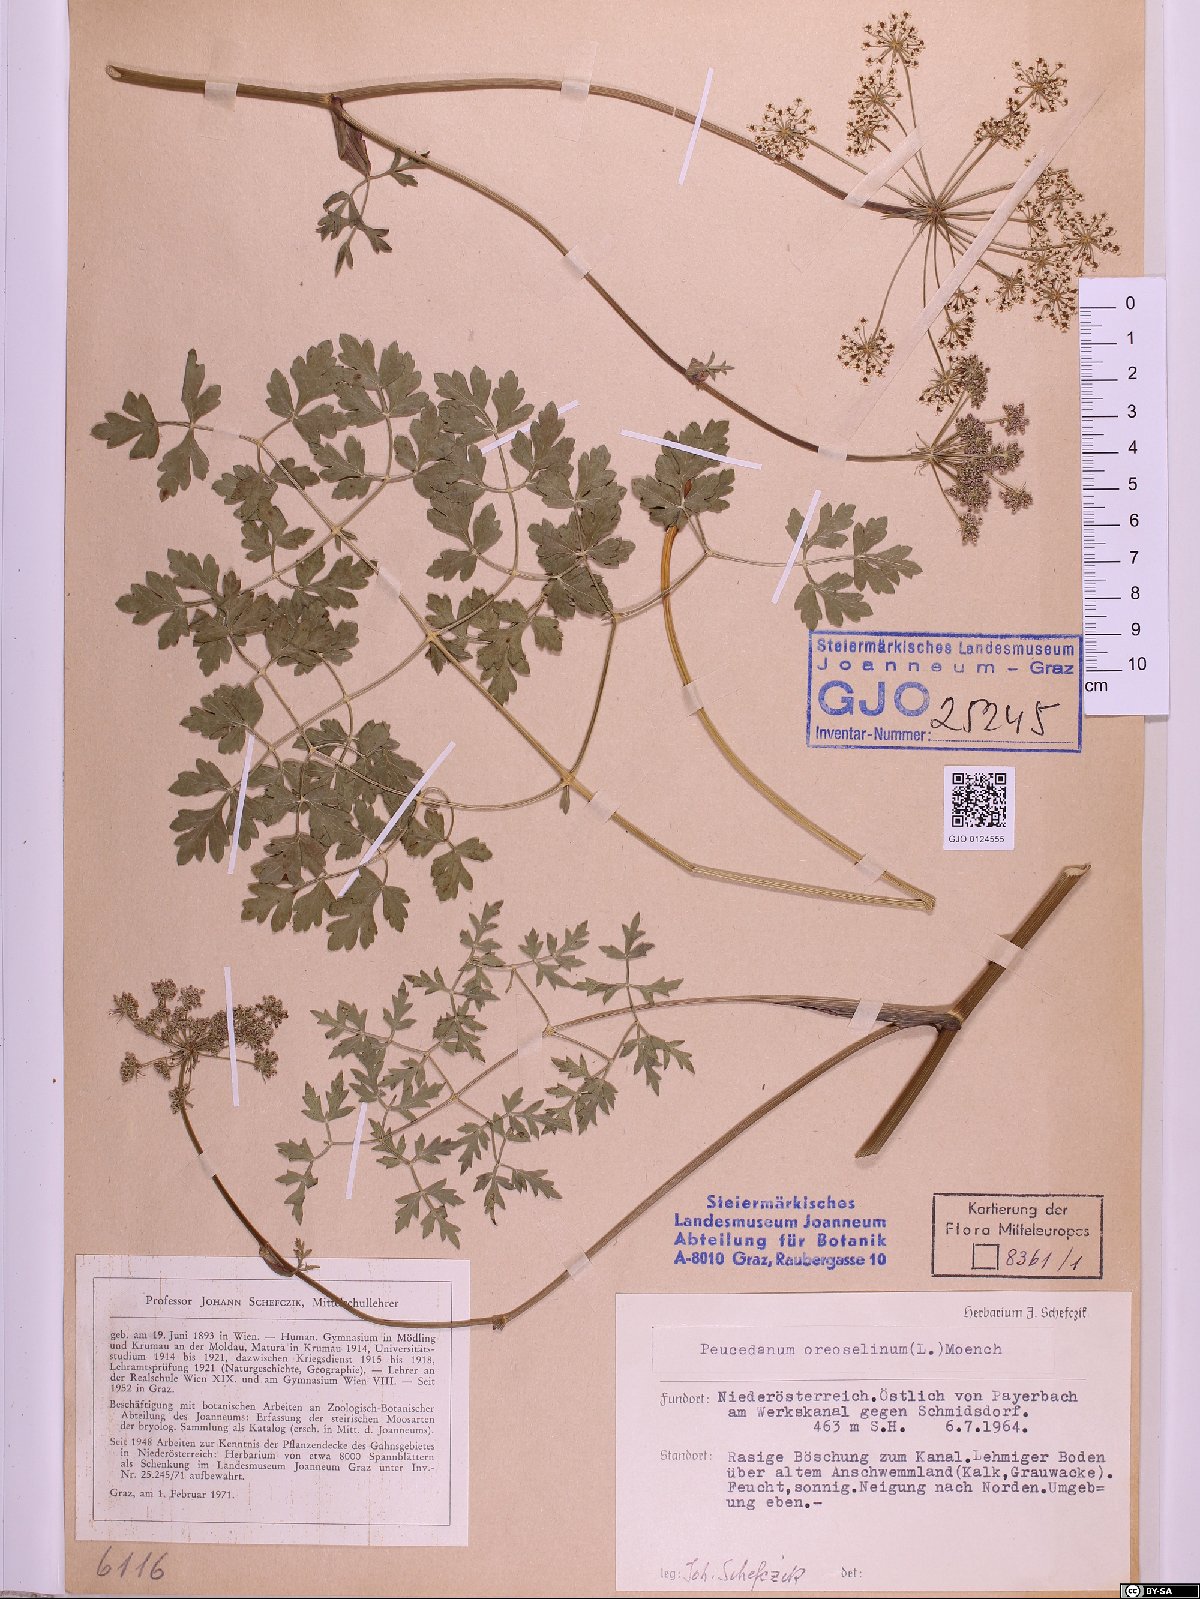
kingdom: Plantae
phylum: Tracheophyta
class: Magnoliopsida
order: Apiales
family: Apiaceae
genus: Oreoselinum
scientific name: Oreoselinum nigrum
